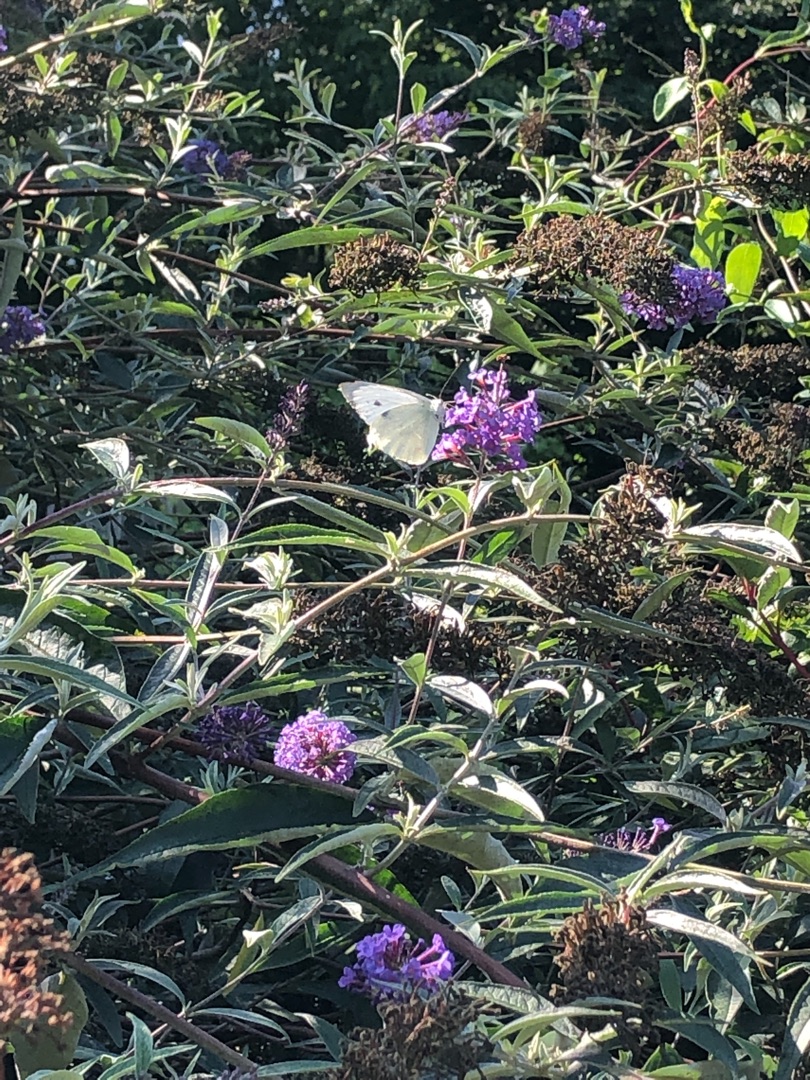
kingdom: Animalia
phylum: Arthropoda
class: Insecta
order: Lepidoptera
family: Pieridae
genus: Pieris
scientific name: Pieris brassicae
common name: Stor kålsommerfugl
